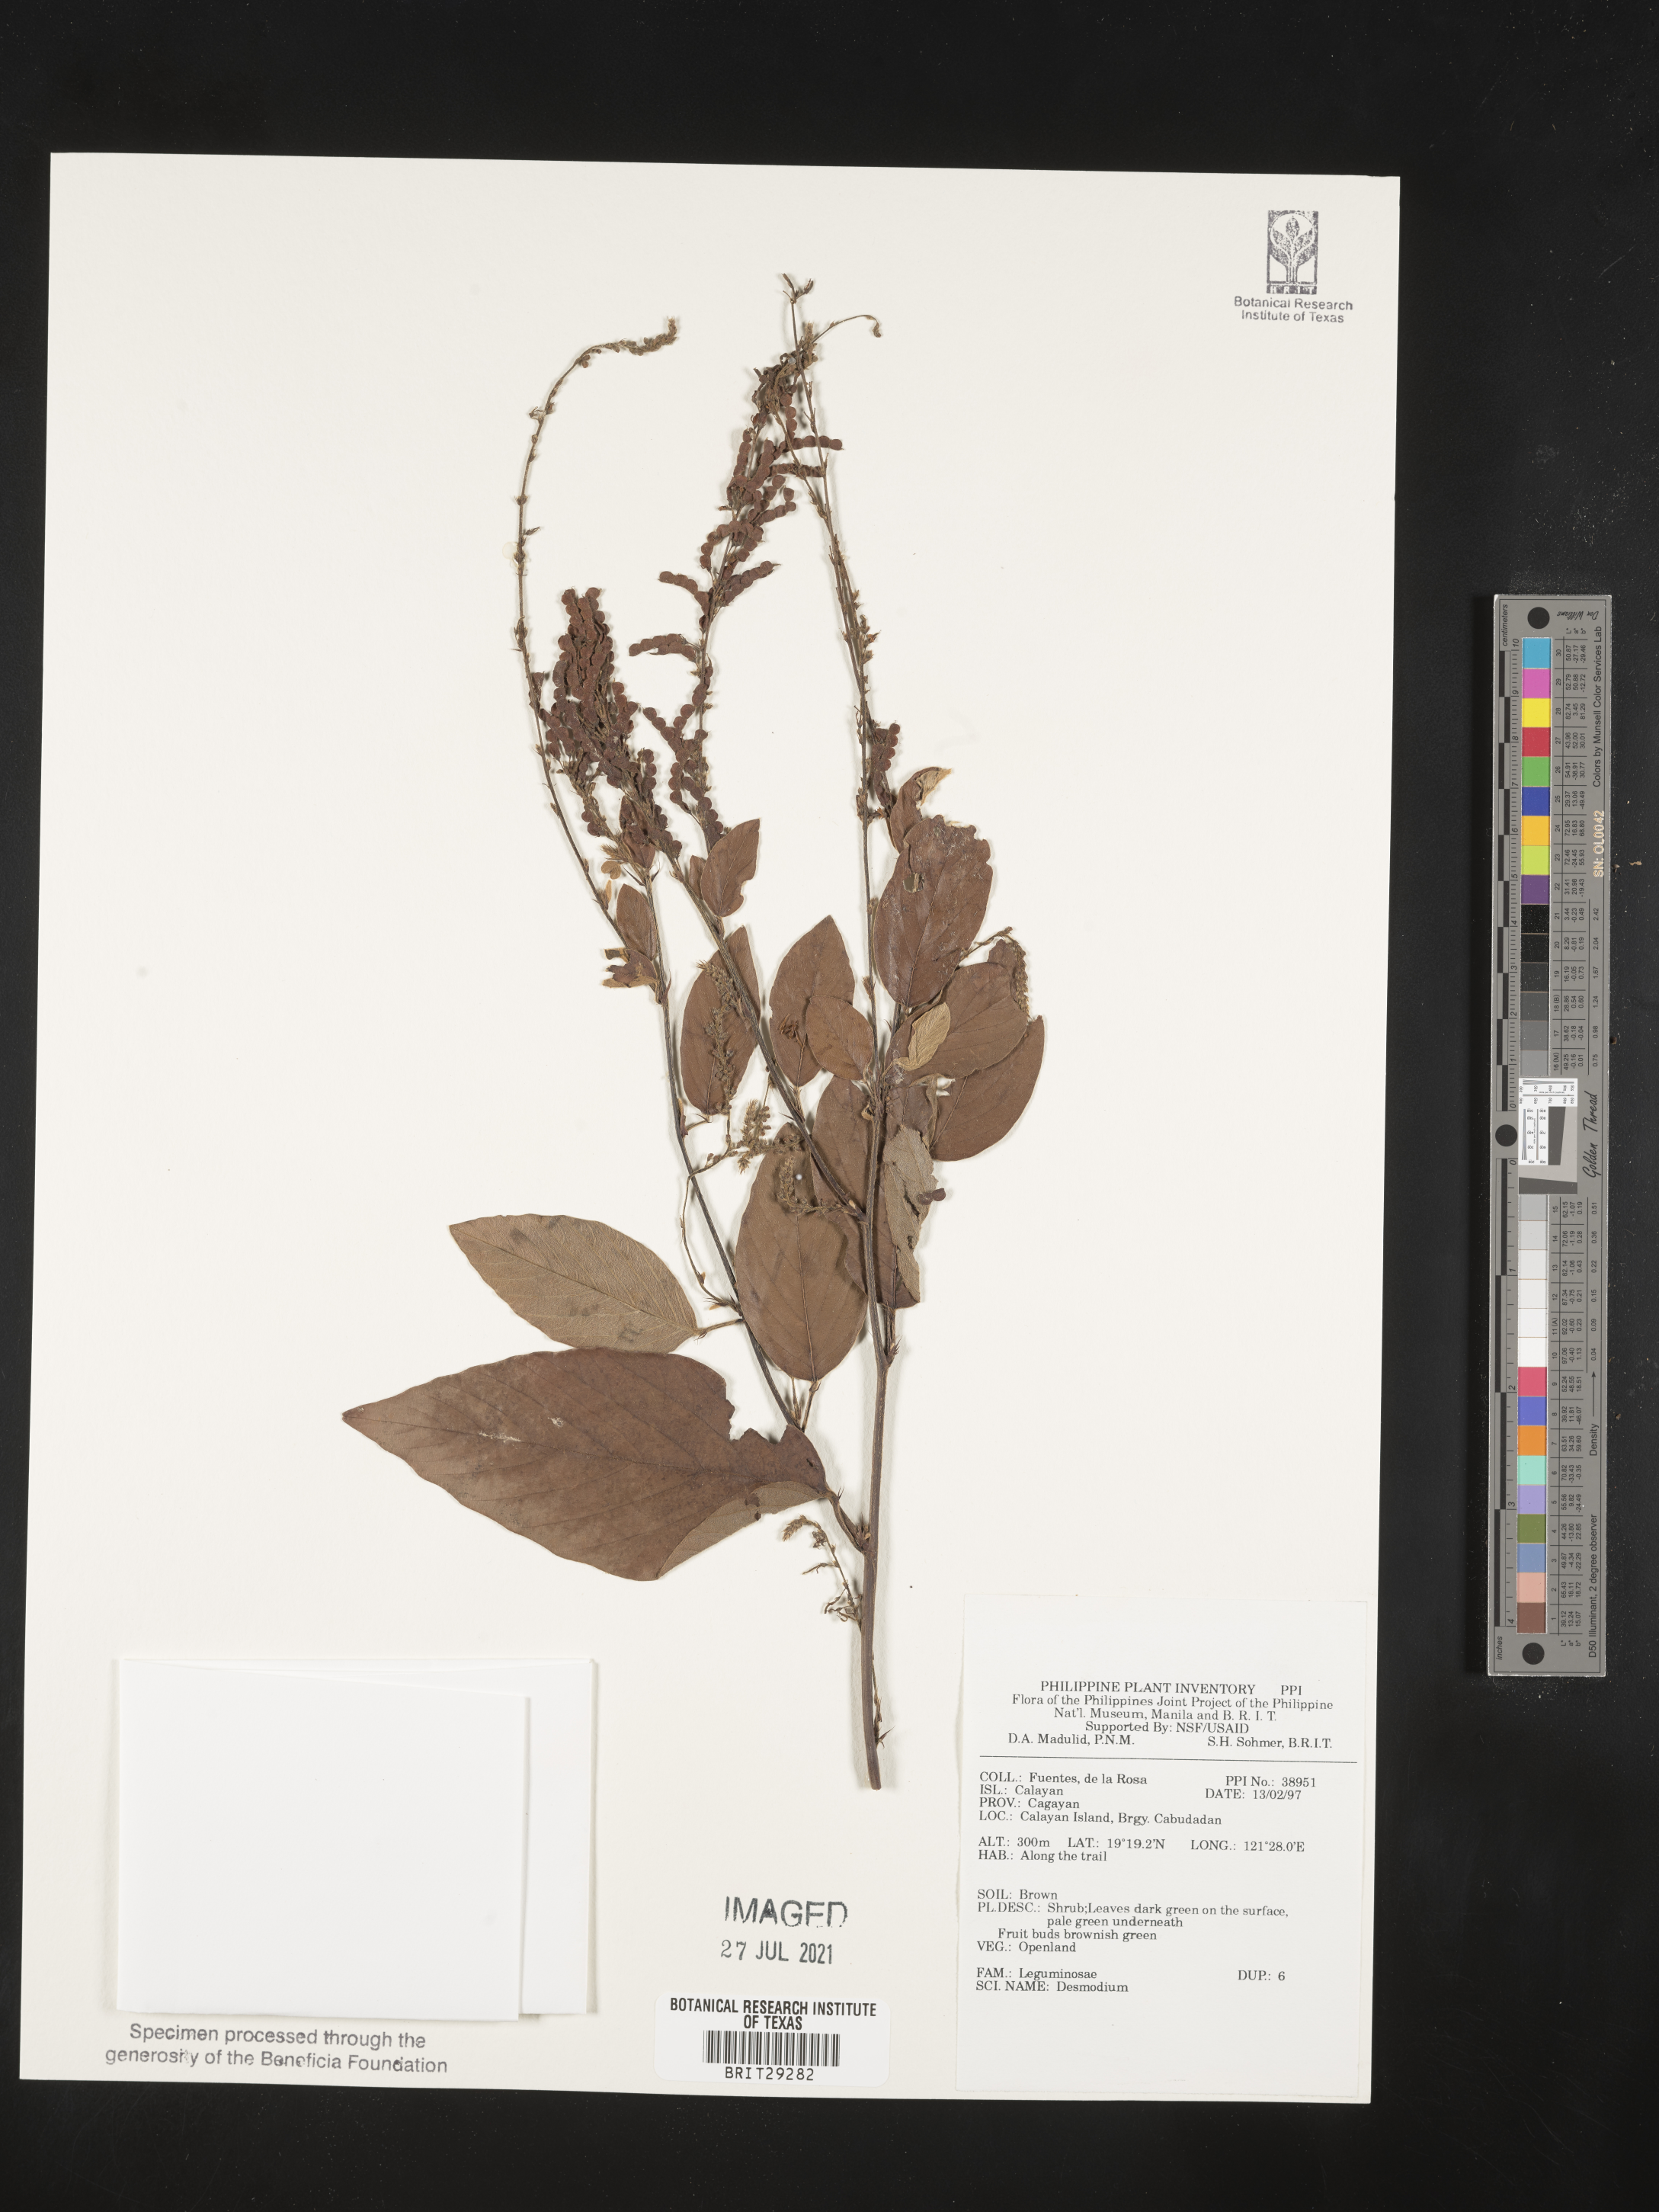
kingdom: Plantae
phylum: Tracheophyta
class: Magnoliopsida
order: Fabales
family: Fabaceae
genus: Desmodium
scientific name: Desmodium
